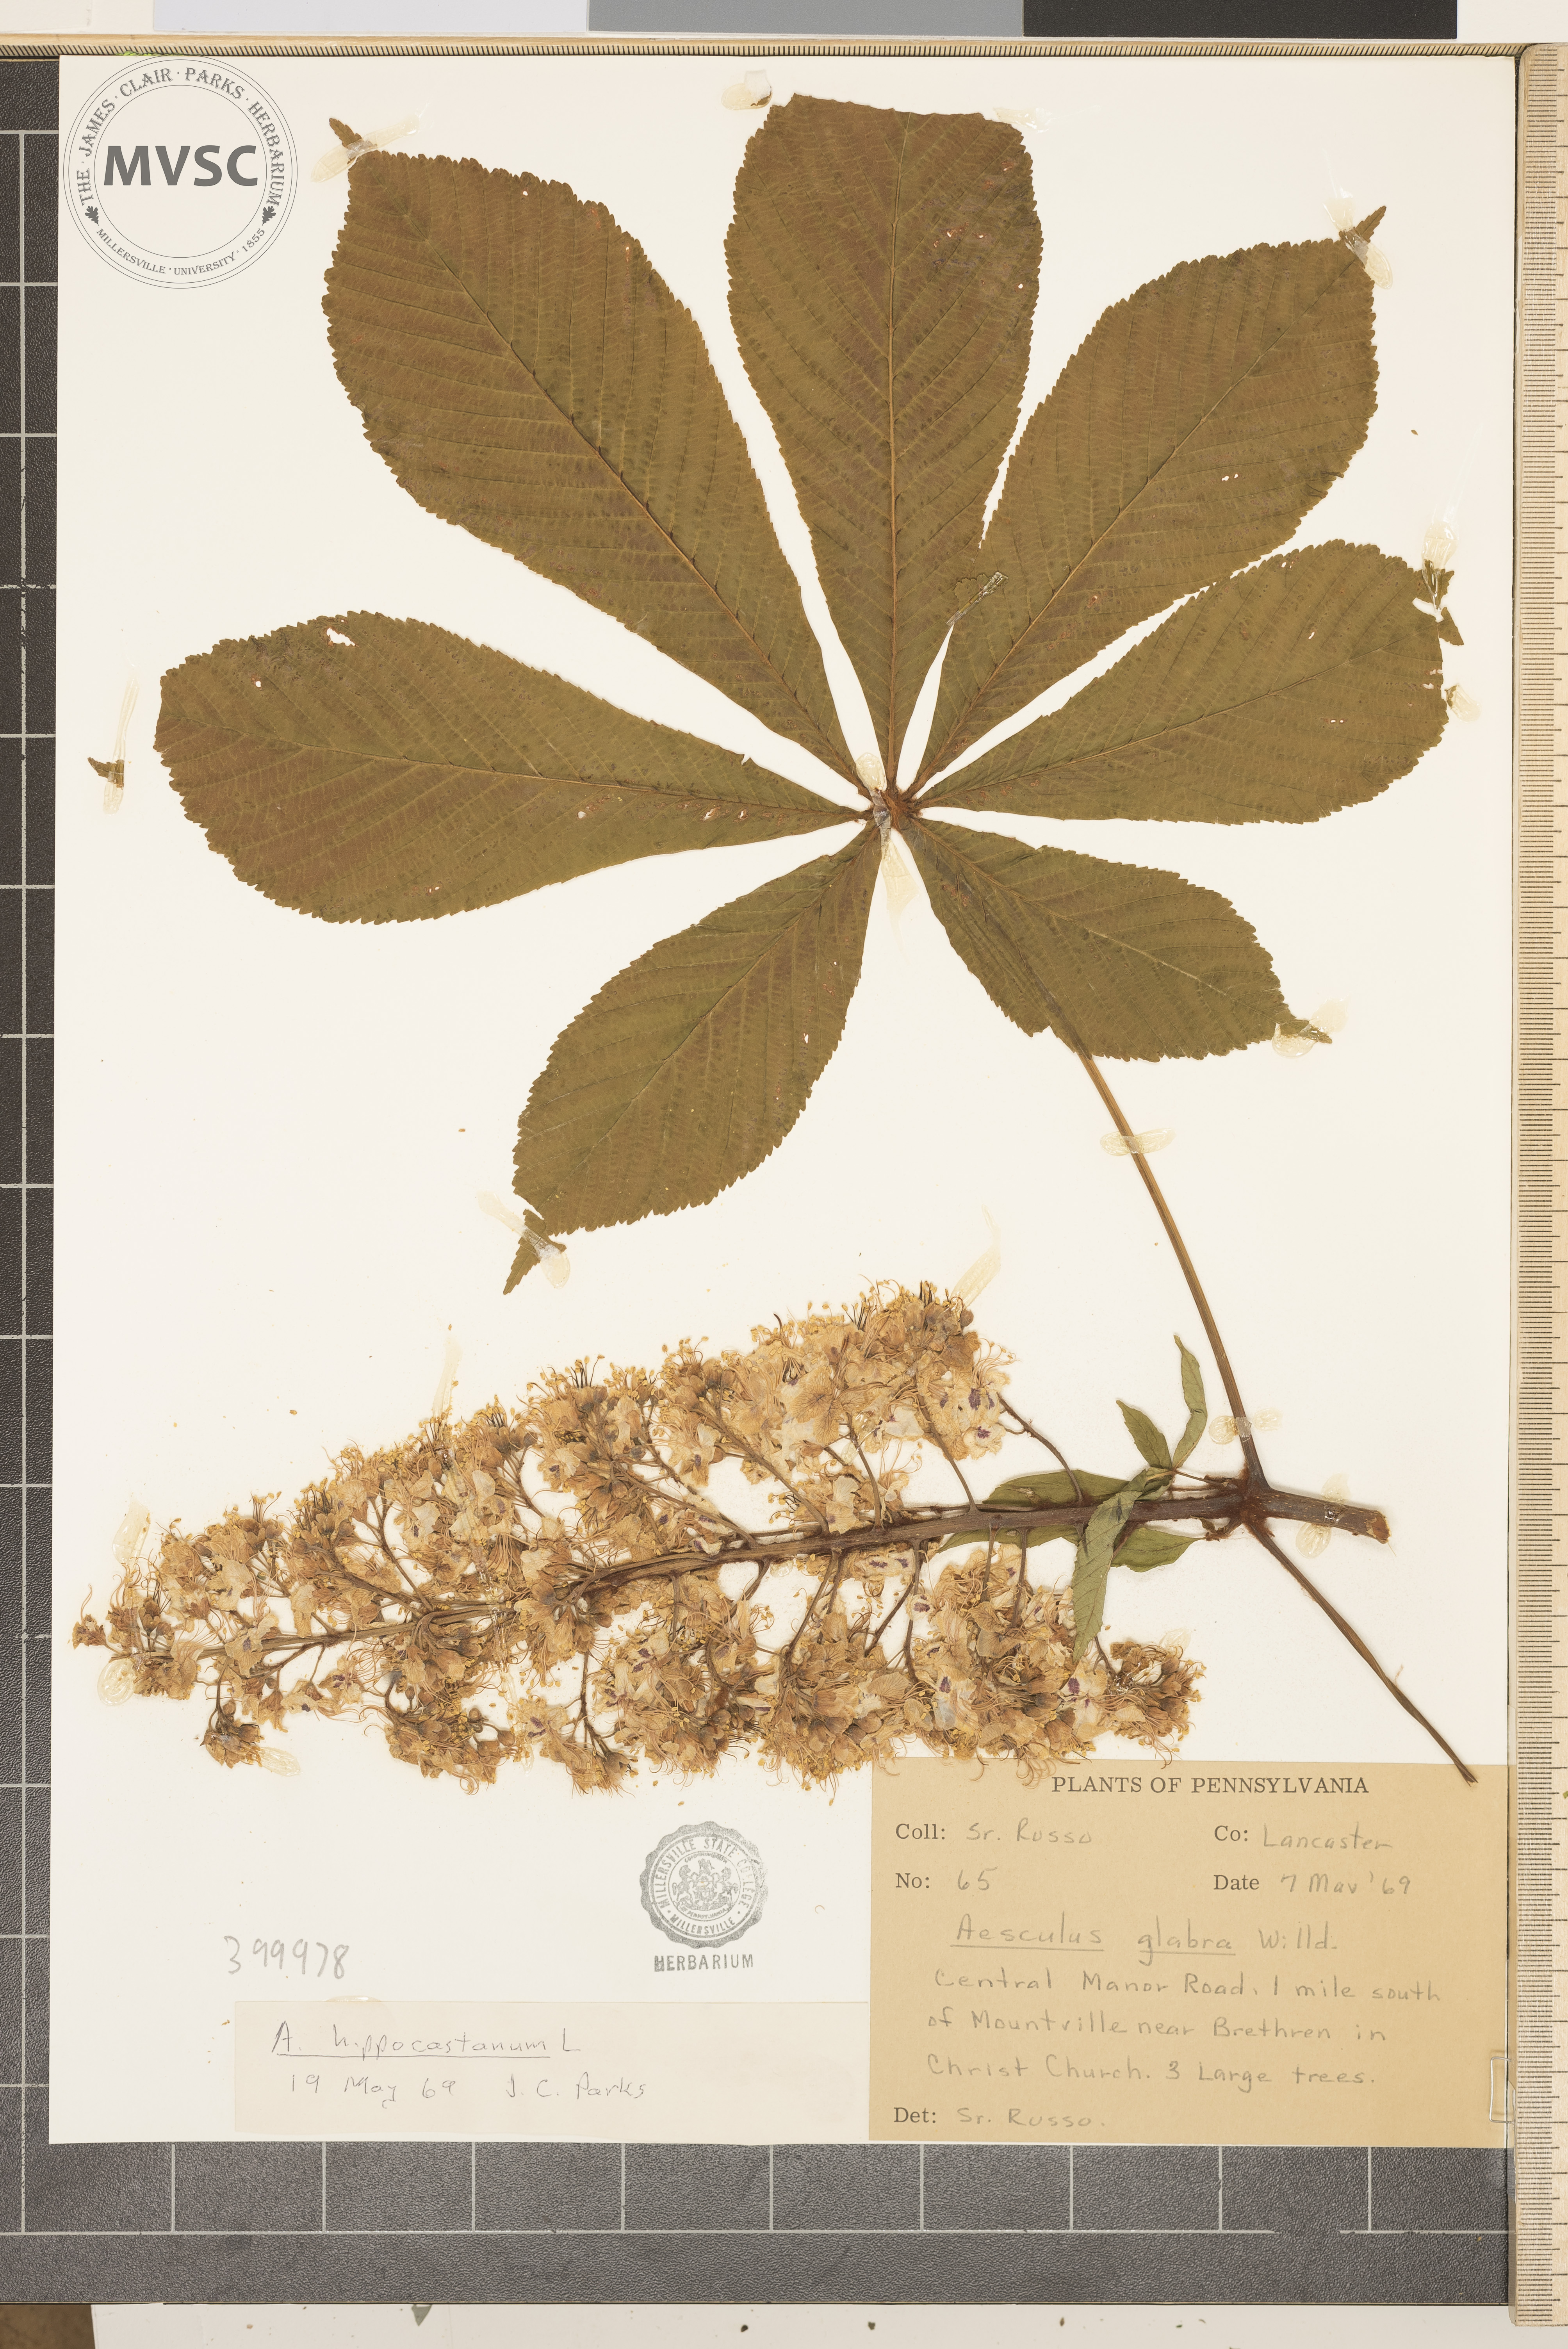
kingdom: Plantae
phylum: Tracheophyta
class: Magnoliopsida
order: Sapindales
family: Sapindaceae
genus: Aesculus
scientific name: Aesculus hippocastanum
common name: horse-chestnut
